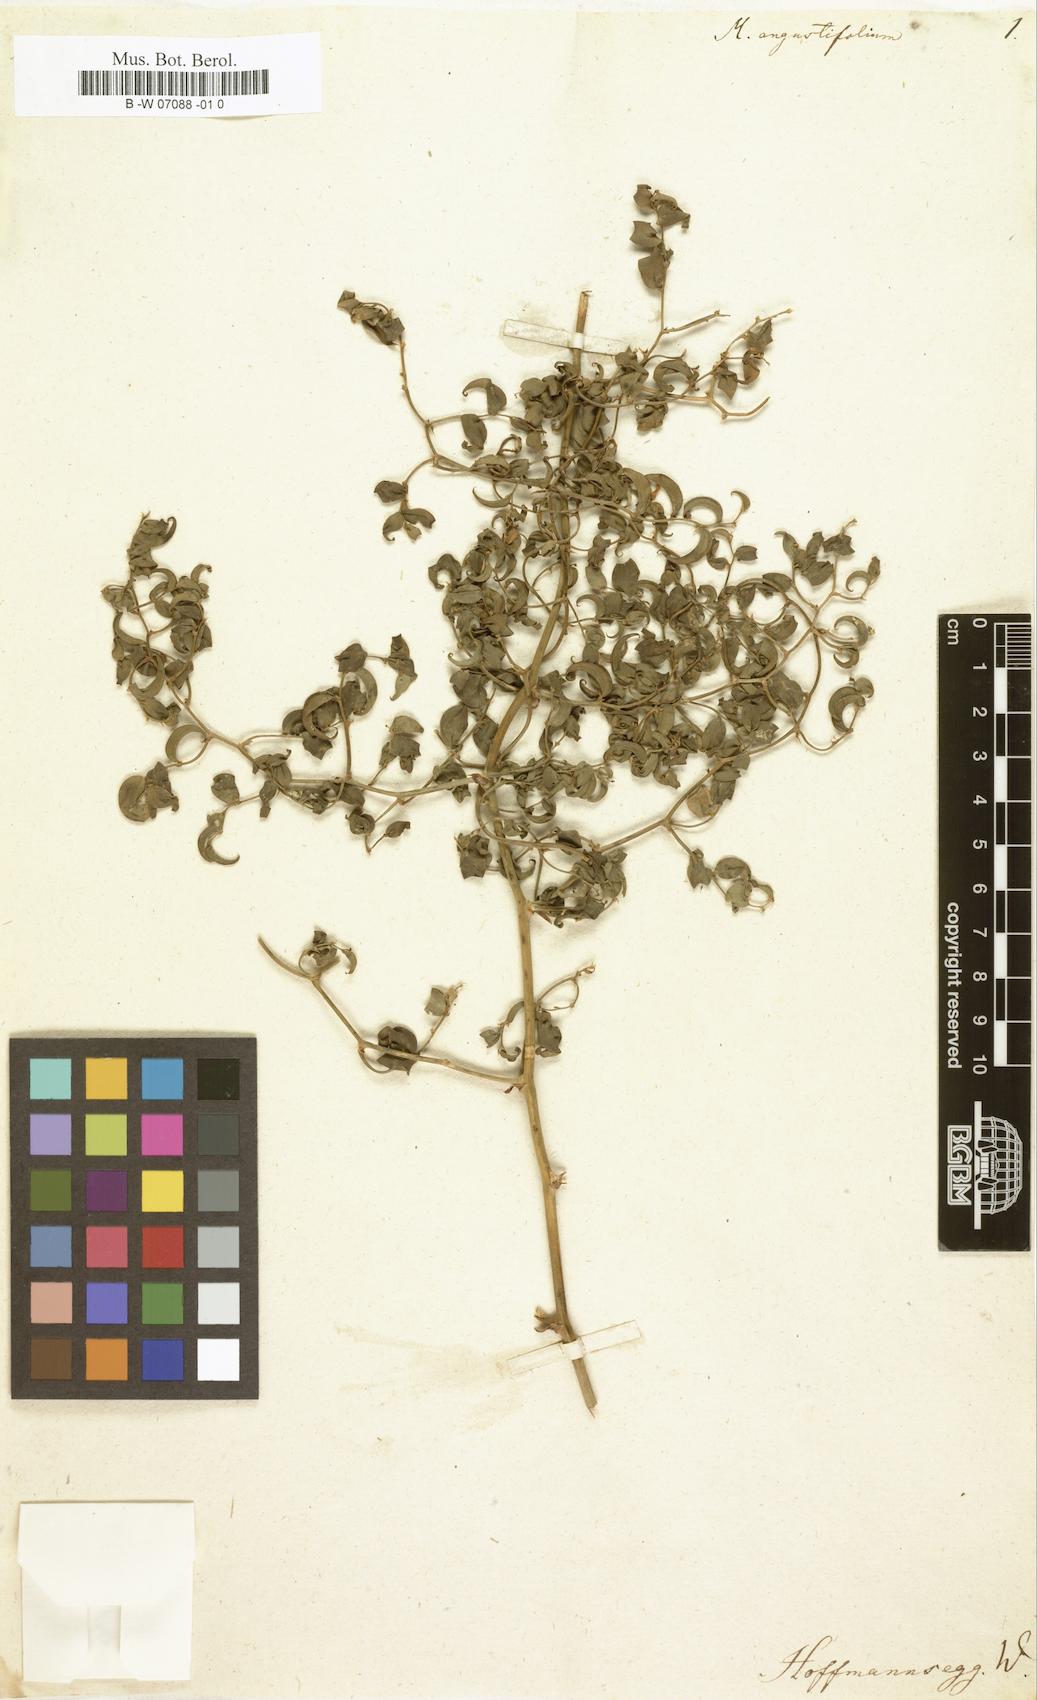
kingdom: Plantae
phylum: Tracheophyta
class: Liliopsida
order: Asparagales
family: Asparagaceae
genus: Asparagus
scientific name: Asparagus asparagoides
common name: African asparagus fern
